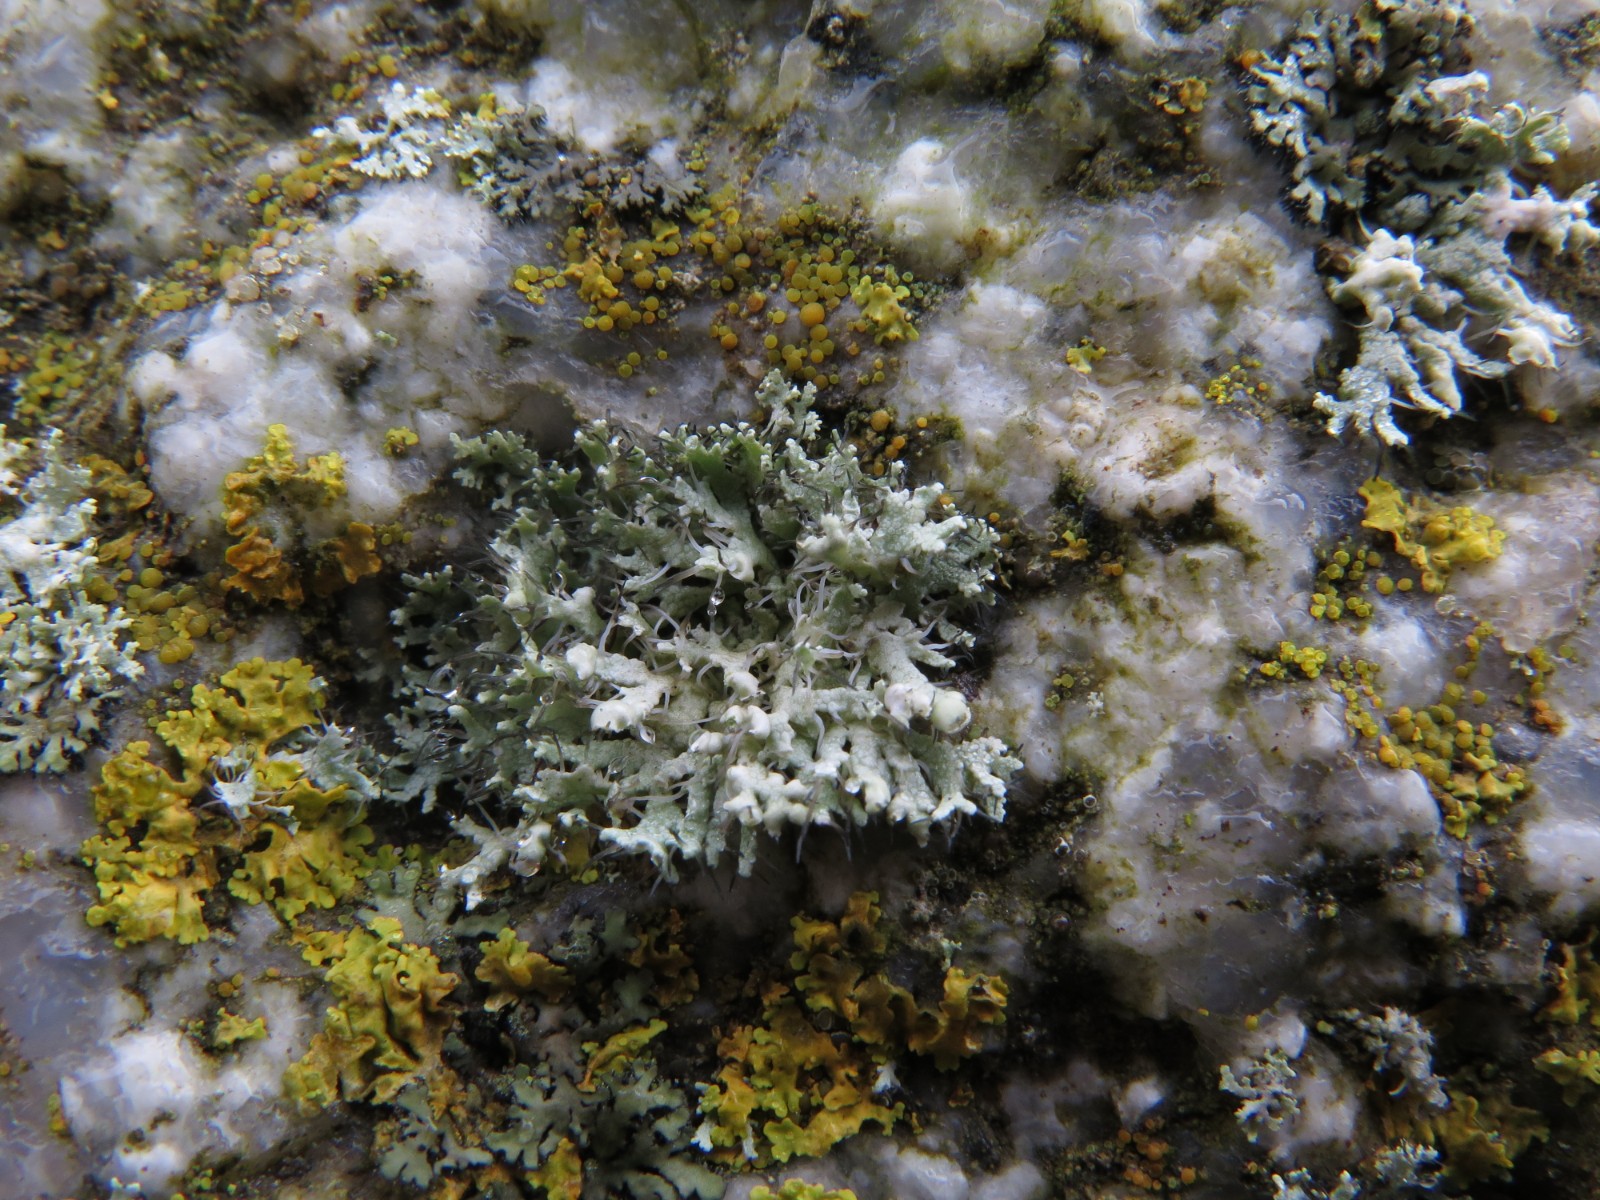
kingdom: Fungi
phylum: Ascomycota
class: Lecanoromycetes
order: Caliciales
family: Physciaceae
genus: Physcia
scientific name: Physcia adscendens
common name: hætte-rosetlav
